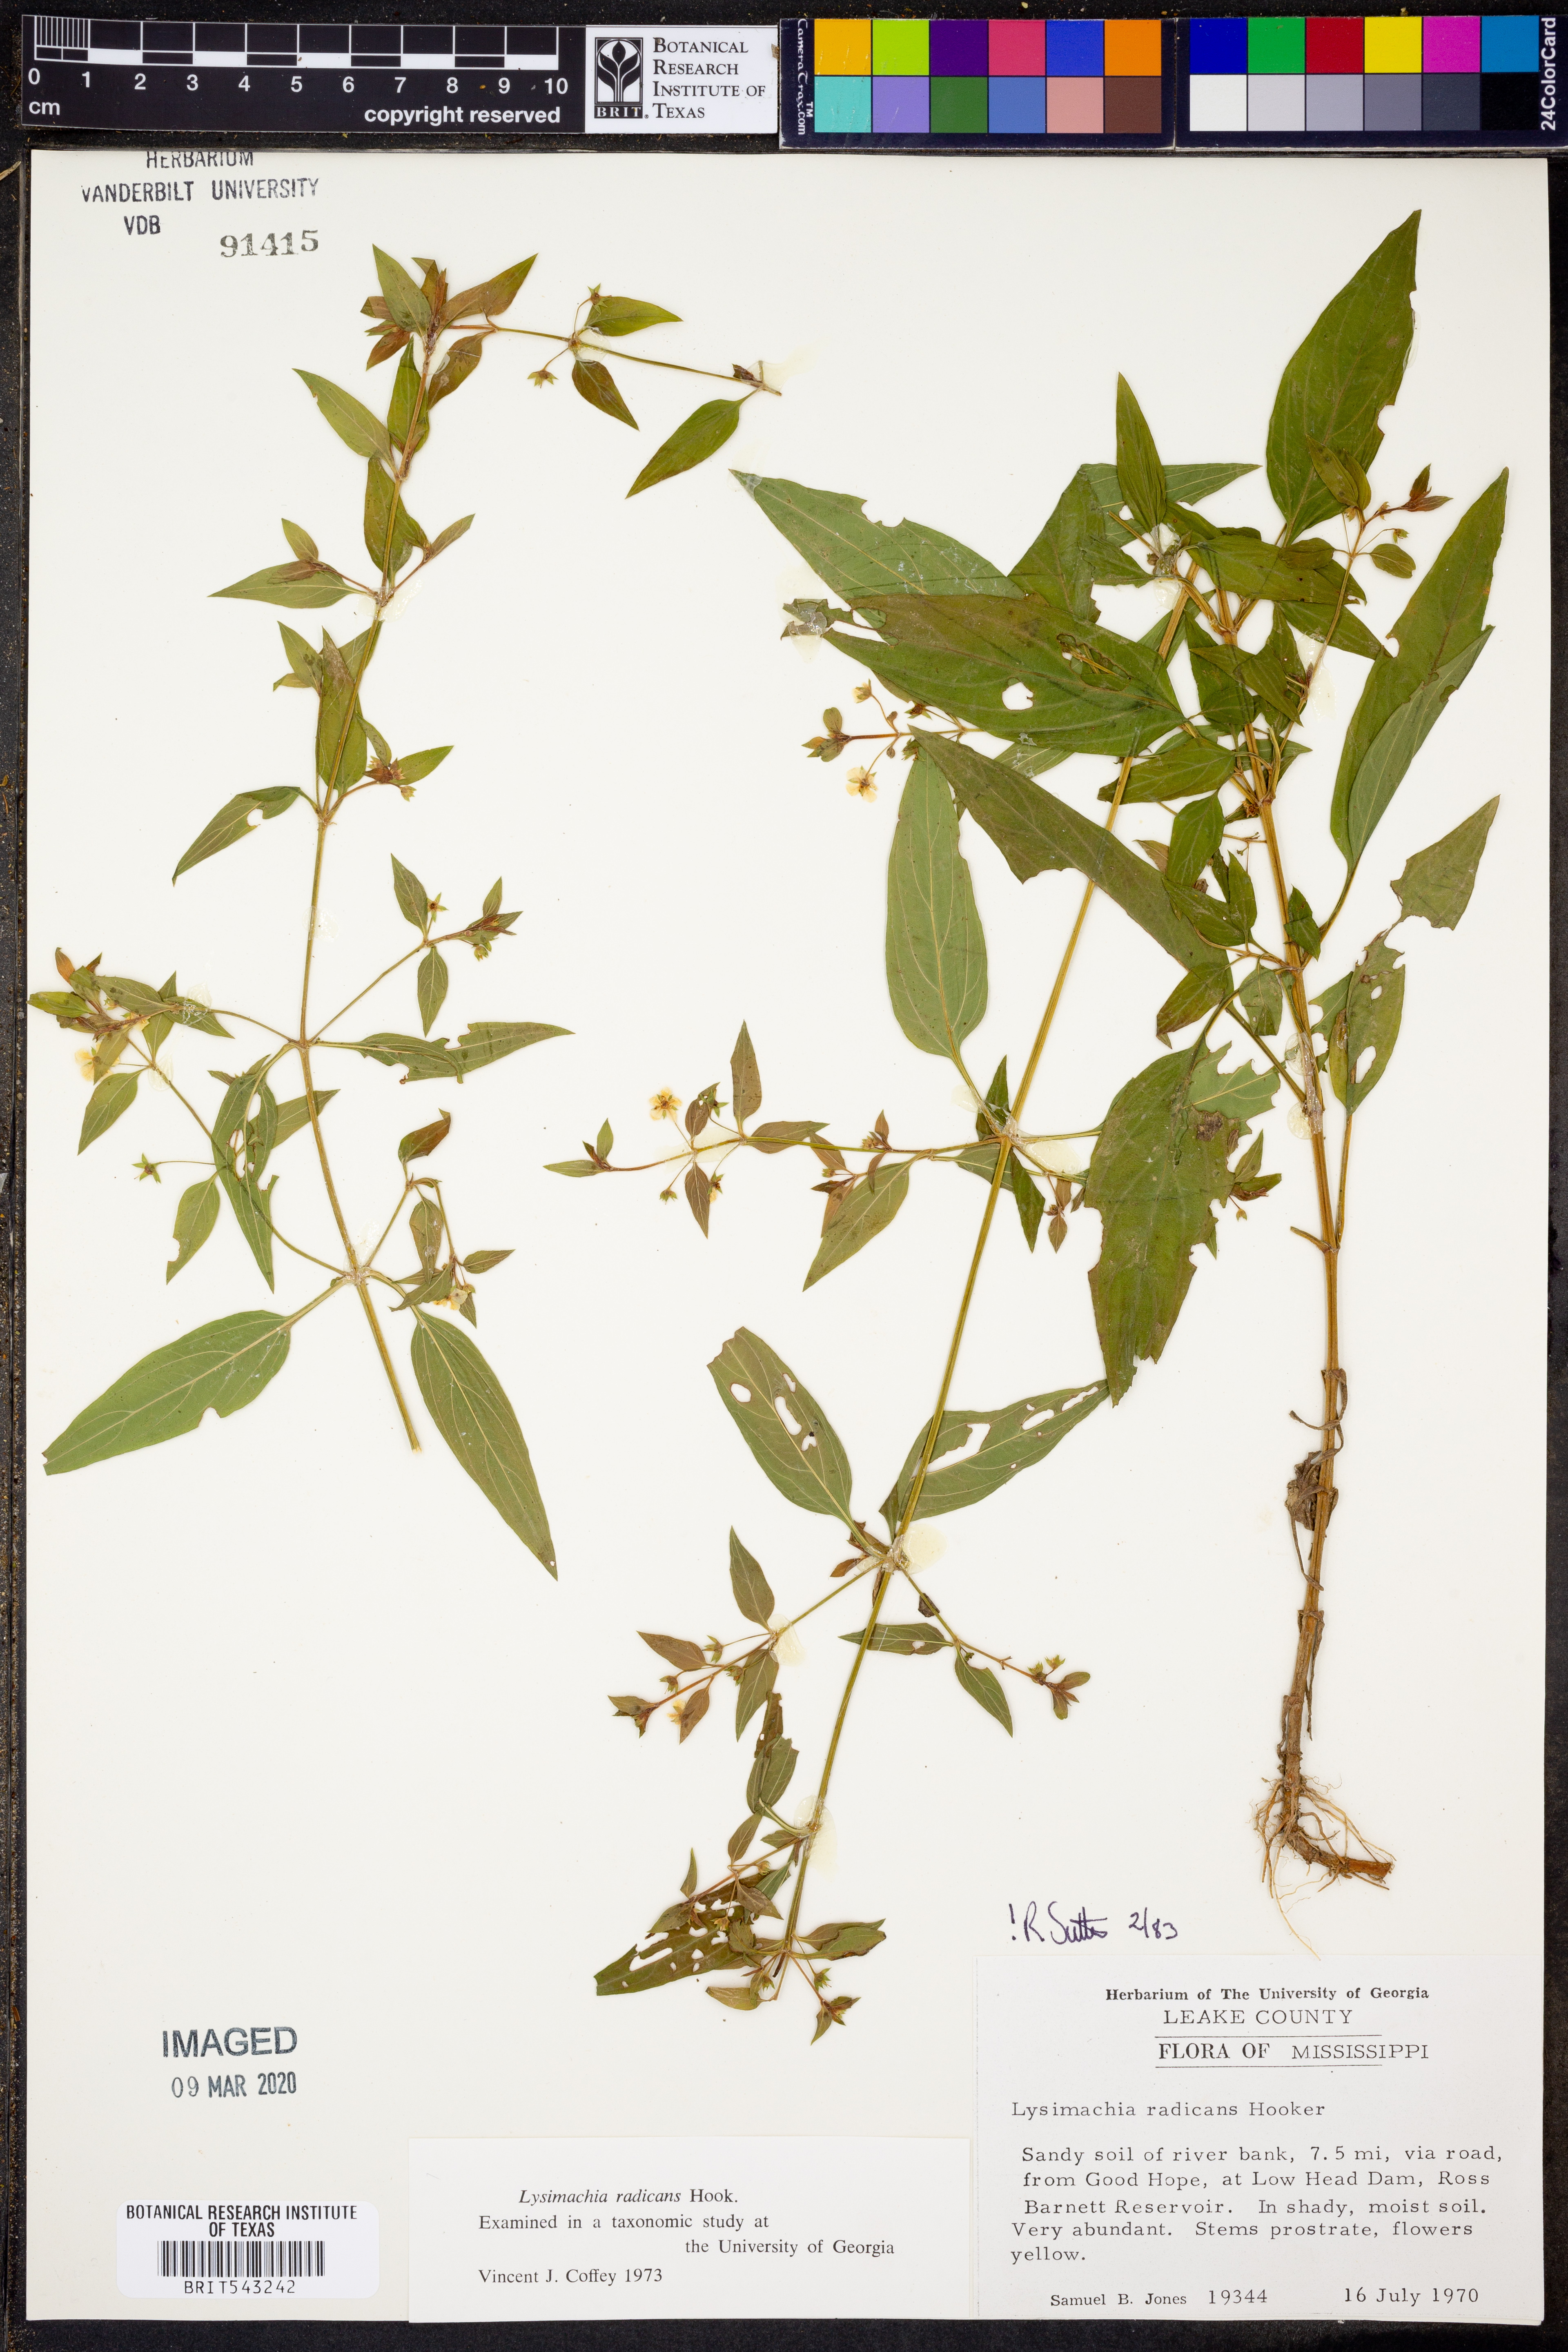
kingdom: Plantae
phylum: Tracheophyta
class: Magnoliopsida
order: Ericales
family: Primulaceae
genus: Lysimachia
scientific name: Lysimachia radicans
